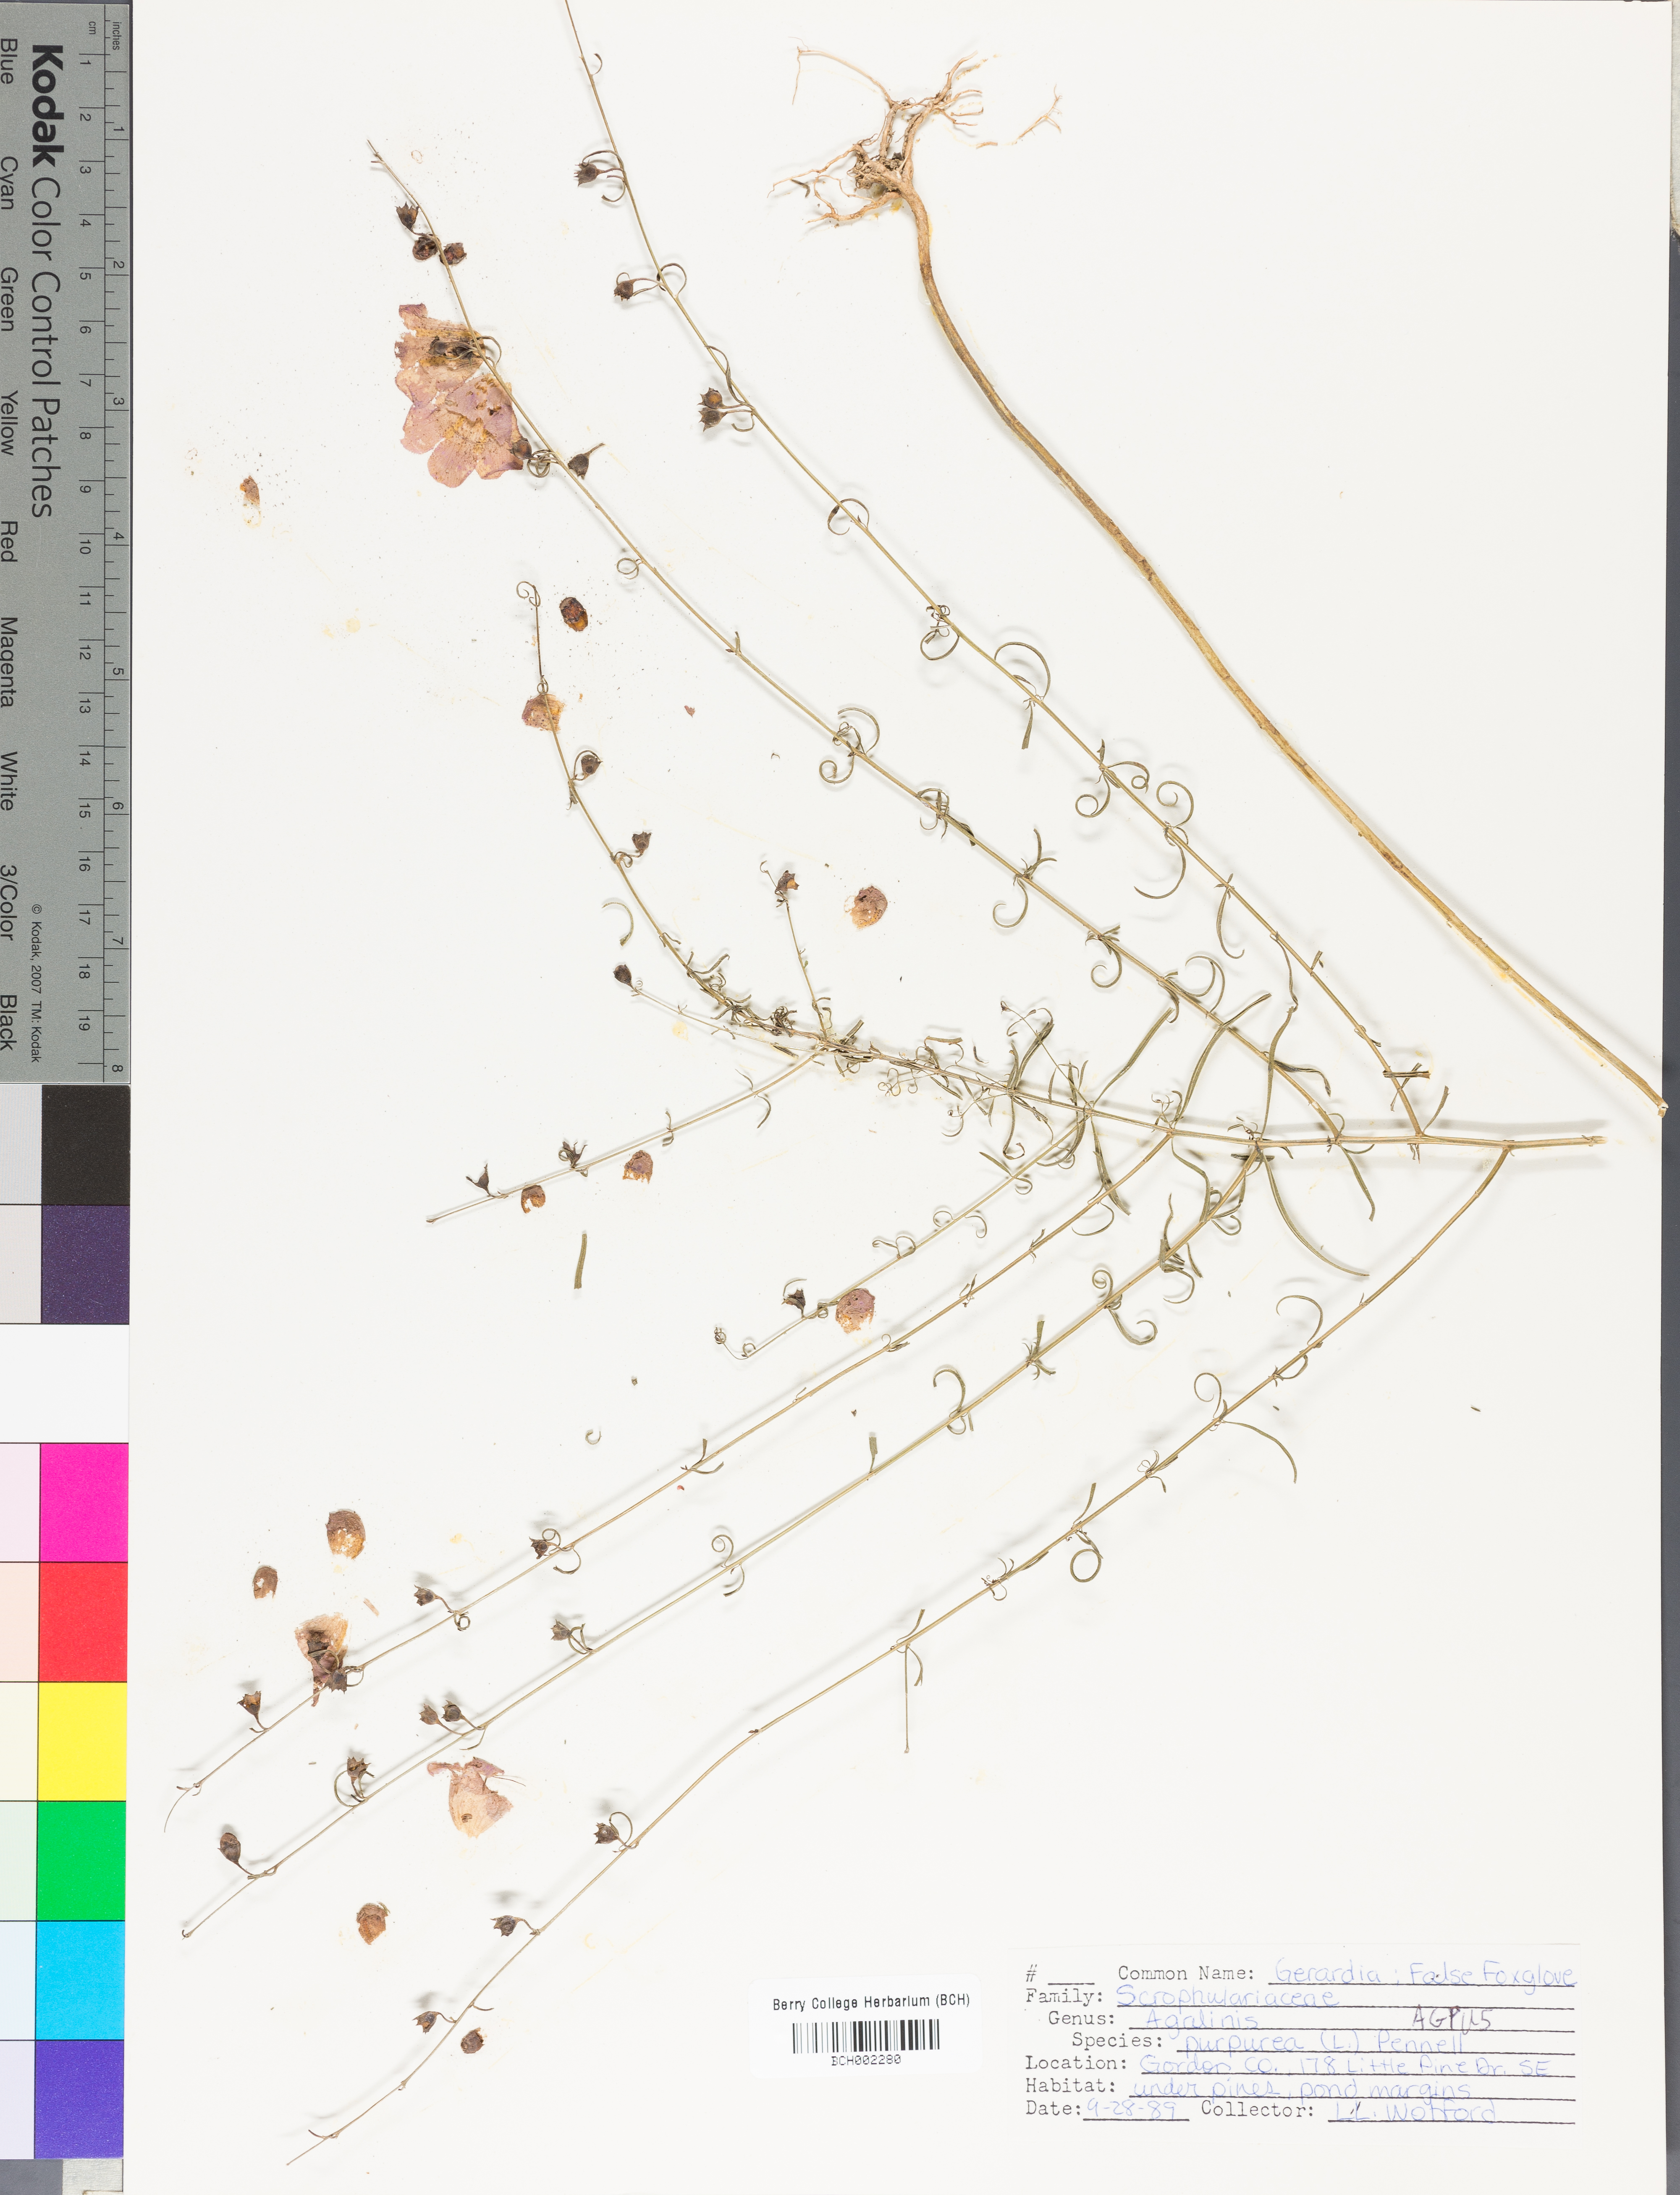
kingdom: Plantae
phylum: Tracheophyta
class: Magnoliopsida
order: Lamiales
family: Orobanchaceae
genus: Agalinis
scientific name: Agalinis purpurea
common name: Purple false foxglove
